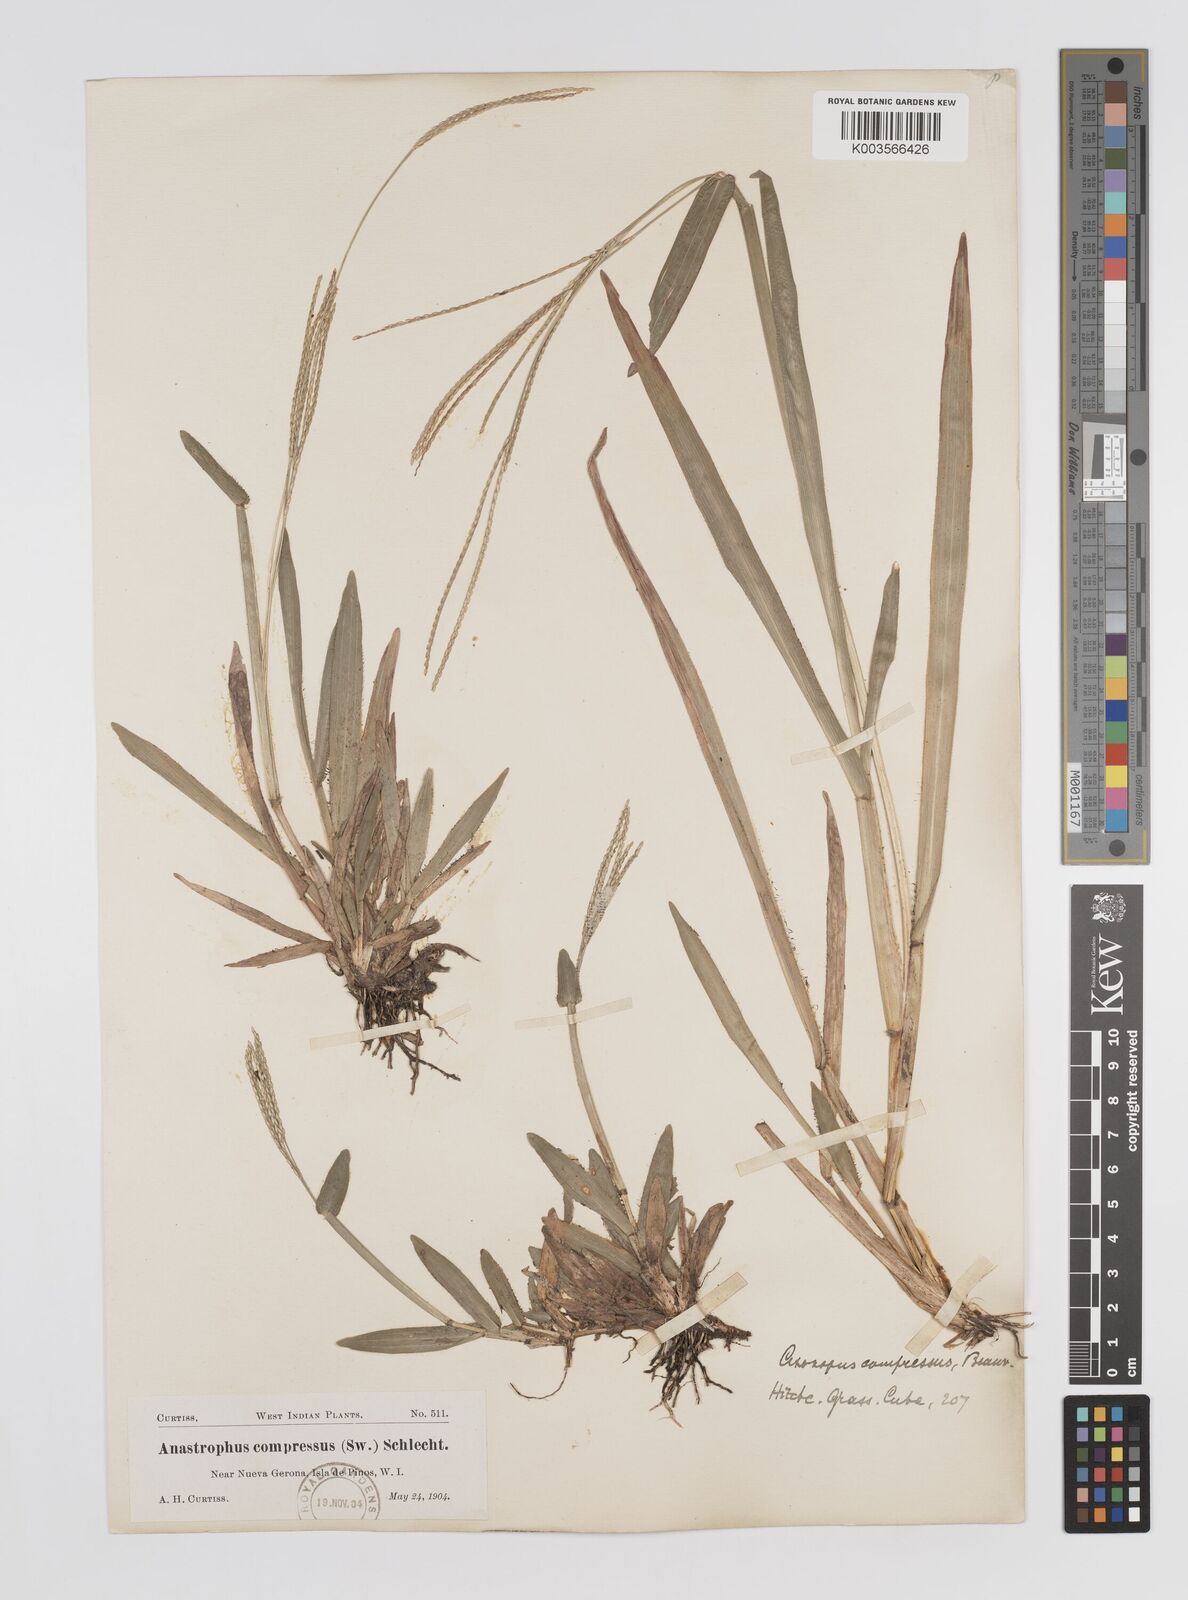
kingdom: Plantae
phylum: Tracheophyta
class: Liliopsida
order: Poales
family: Poaceae
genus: Axonopus
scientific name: Axonopus compressus
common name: American carpet grass
